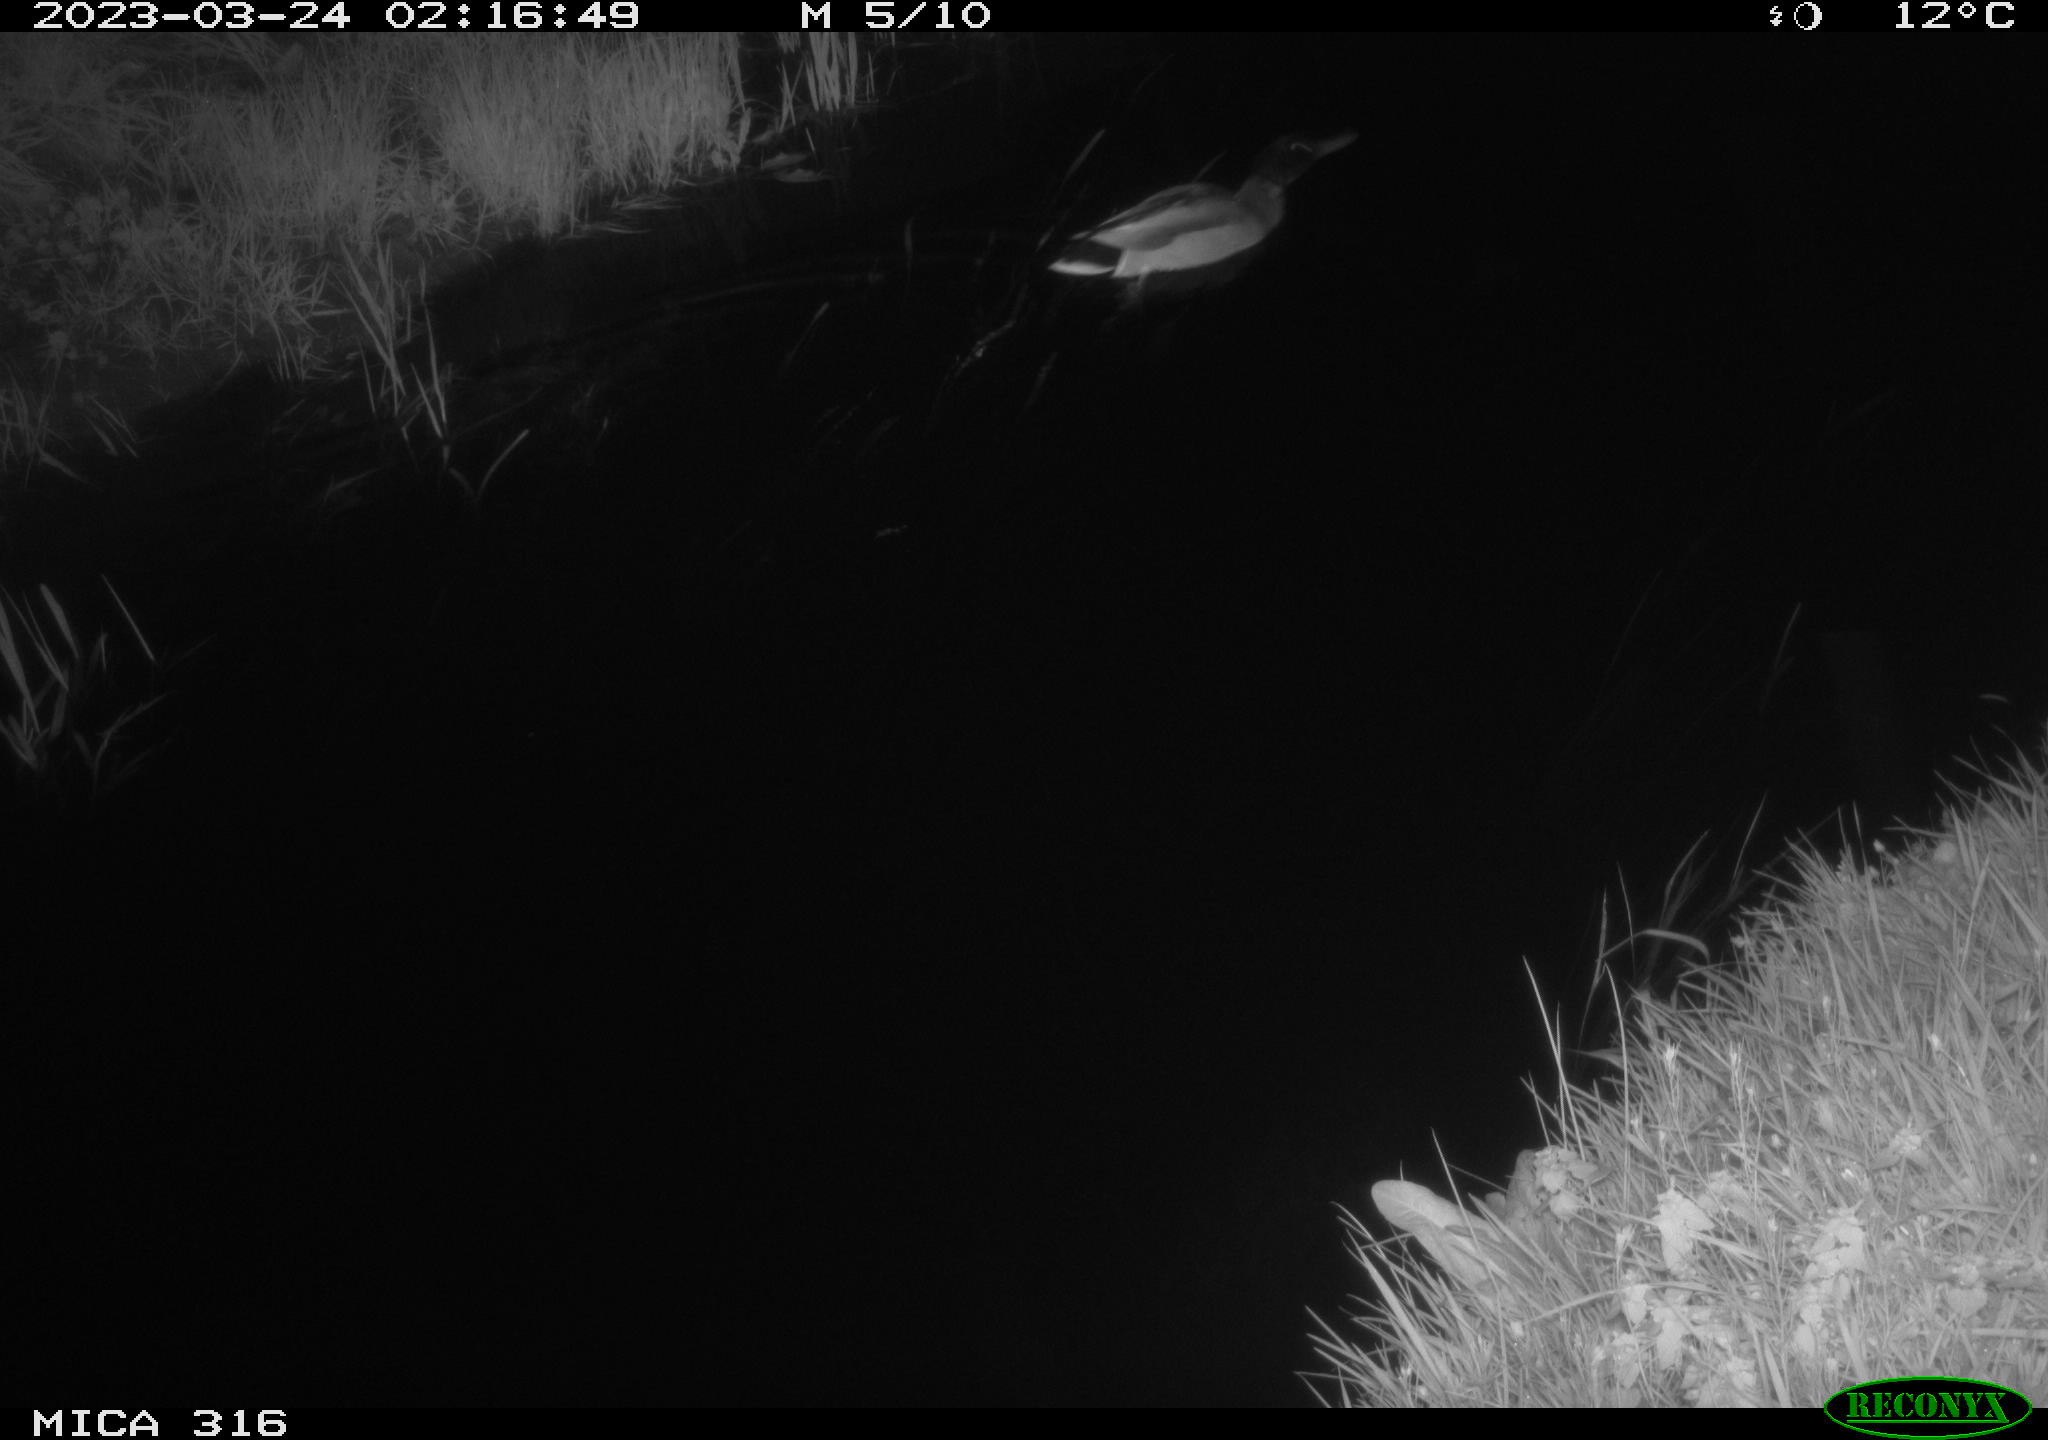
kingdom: Animalia
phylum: Chordata
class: Aves
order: Anseriformes
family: Anatidae
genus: Anas
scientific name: Anas
